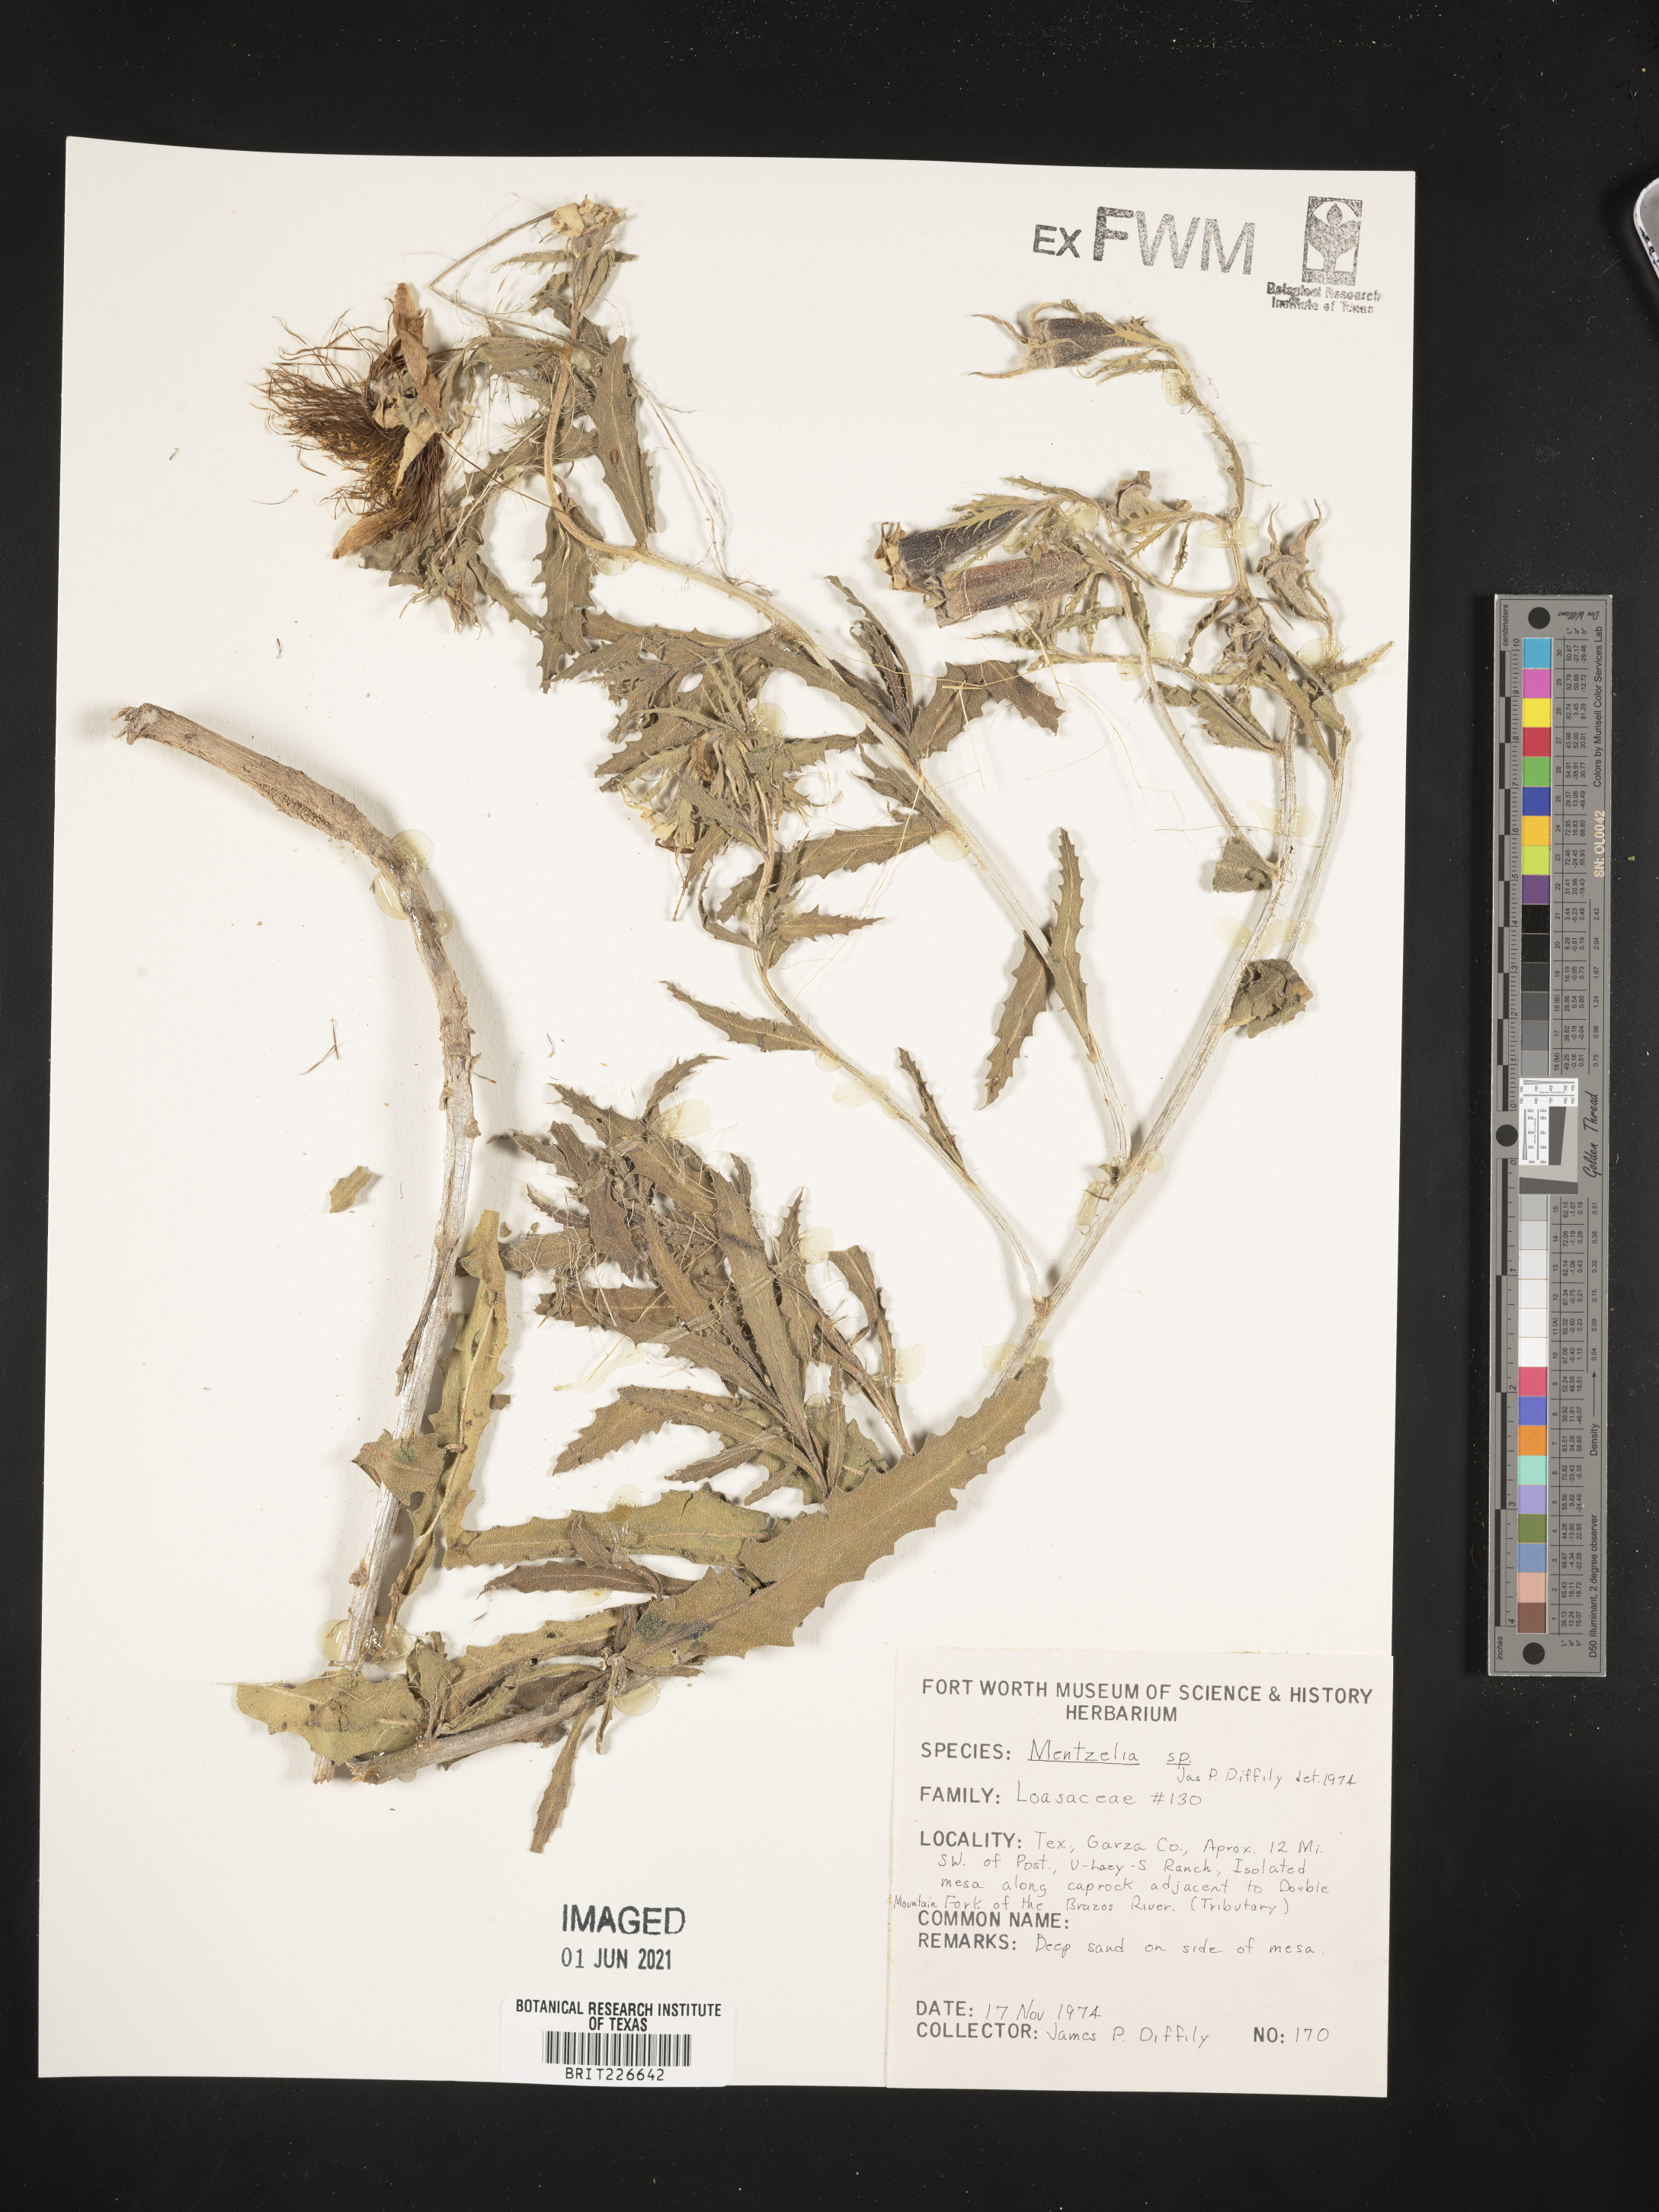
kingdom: Plantae
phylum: Tracheophyta
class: Magnoliopsida
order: Cornales
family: Loasaceae
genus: Mentzelia
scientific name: Mentzelia
